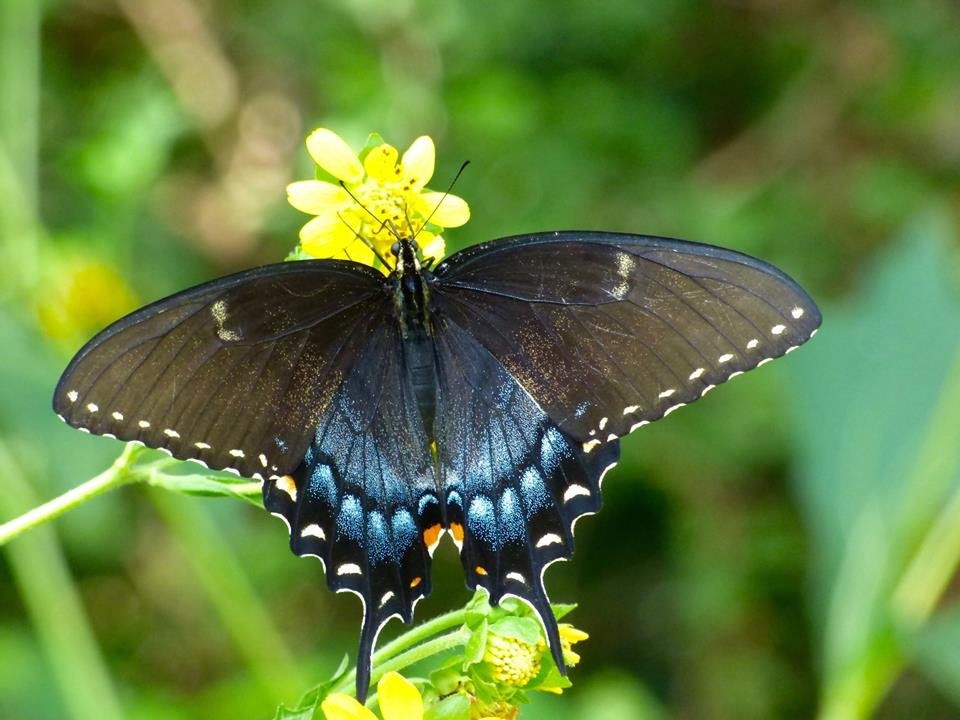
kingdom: Animalia
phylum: Arthropoda
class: Insecta
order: Lepidoptera
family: Papilionidae
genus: Pterourus
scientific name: Pterourus glaucus
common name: Eastern Tiger Swallowtail
